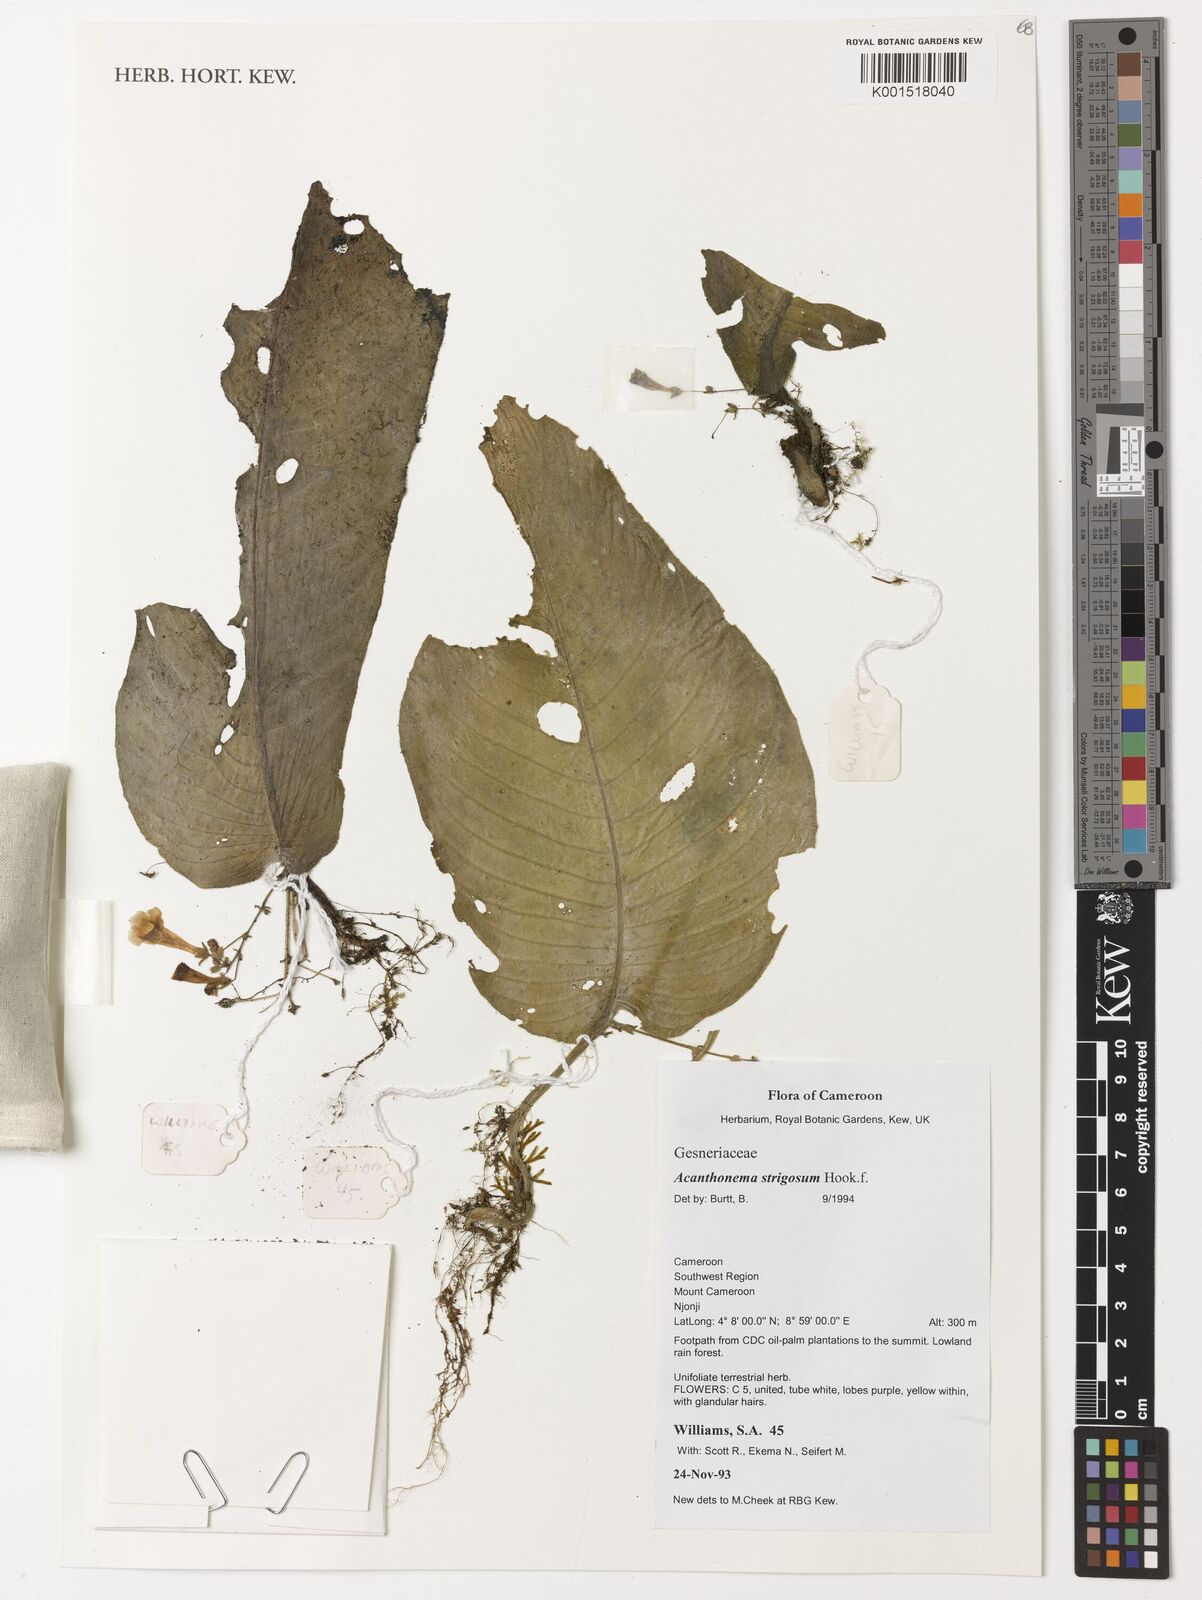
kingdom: Plantae
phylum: Tracheophyta
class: Magnoliopsida
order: Lamiales
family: Gesneriaceae
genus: Streptocarpus
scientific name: Streptocarpus strigosus
